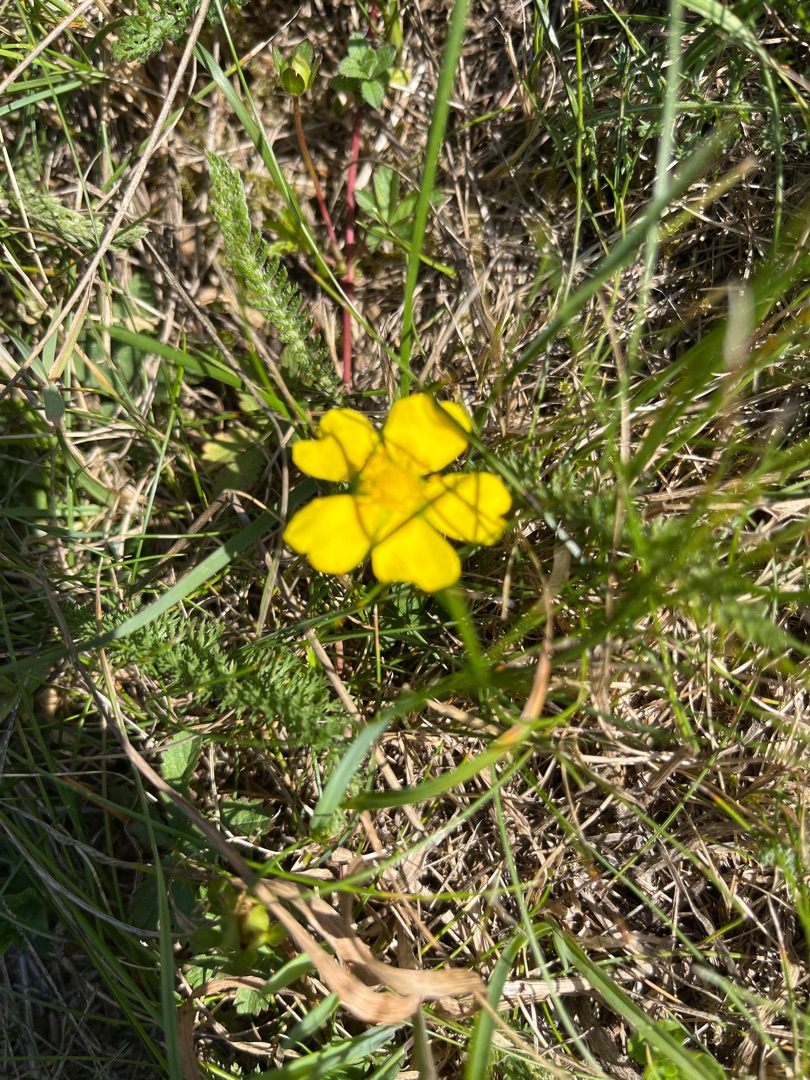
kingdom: Plantae
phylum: Tracheophyta
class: Magnoliopsida
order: Rosales
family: Rosaceae
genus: Potentilla
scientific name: Potentilla reptans
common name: Krybende potentil
